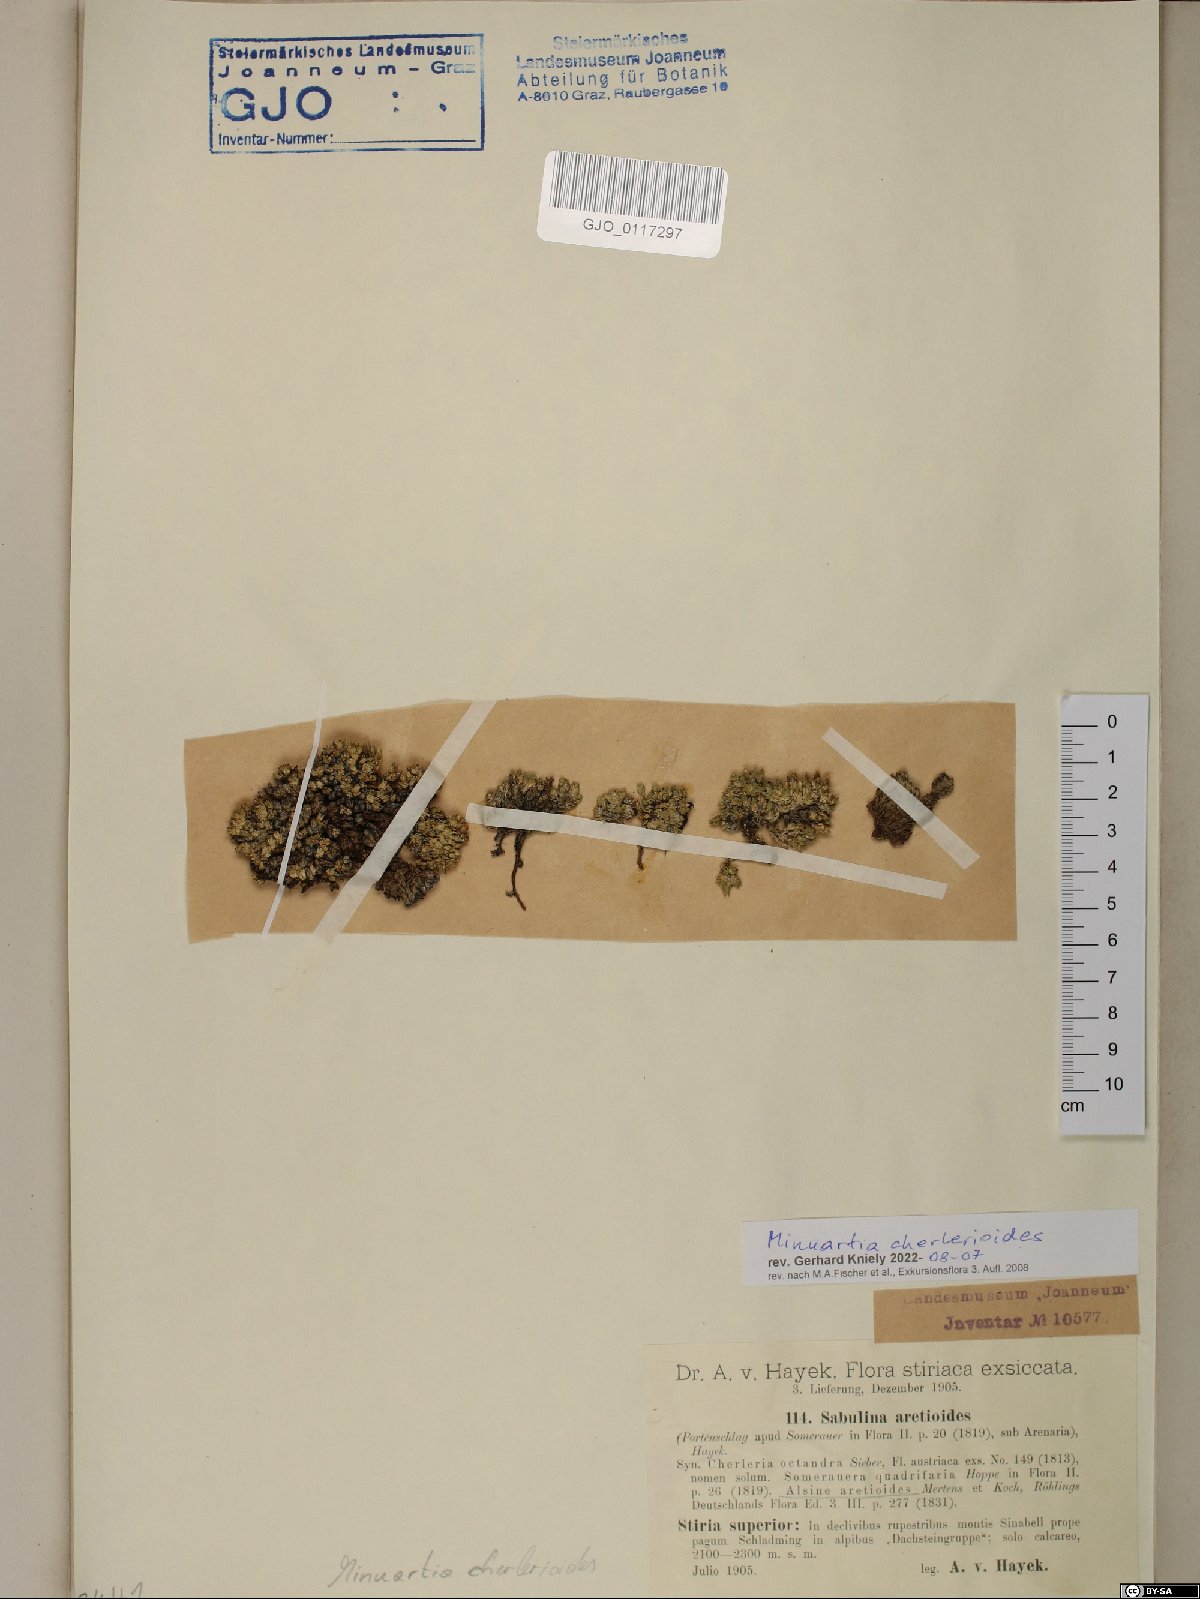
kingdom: Plantae
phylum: Tracheophyta
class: Magnoliopsida
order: Caryophyllales
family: Caryophyllaceae
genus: Facchinia
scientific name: Facchinia cherlerioides
